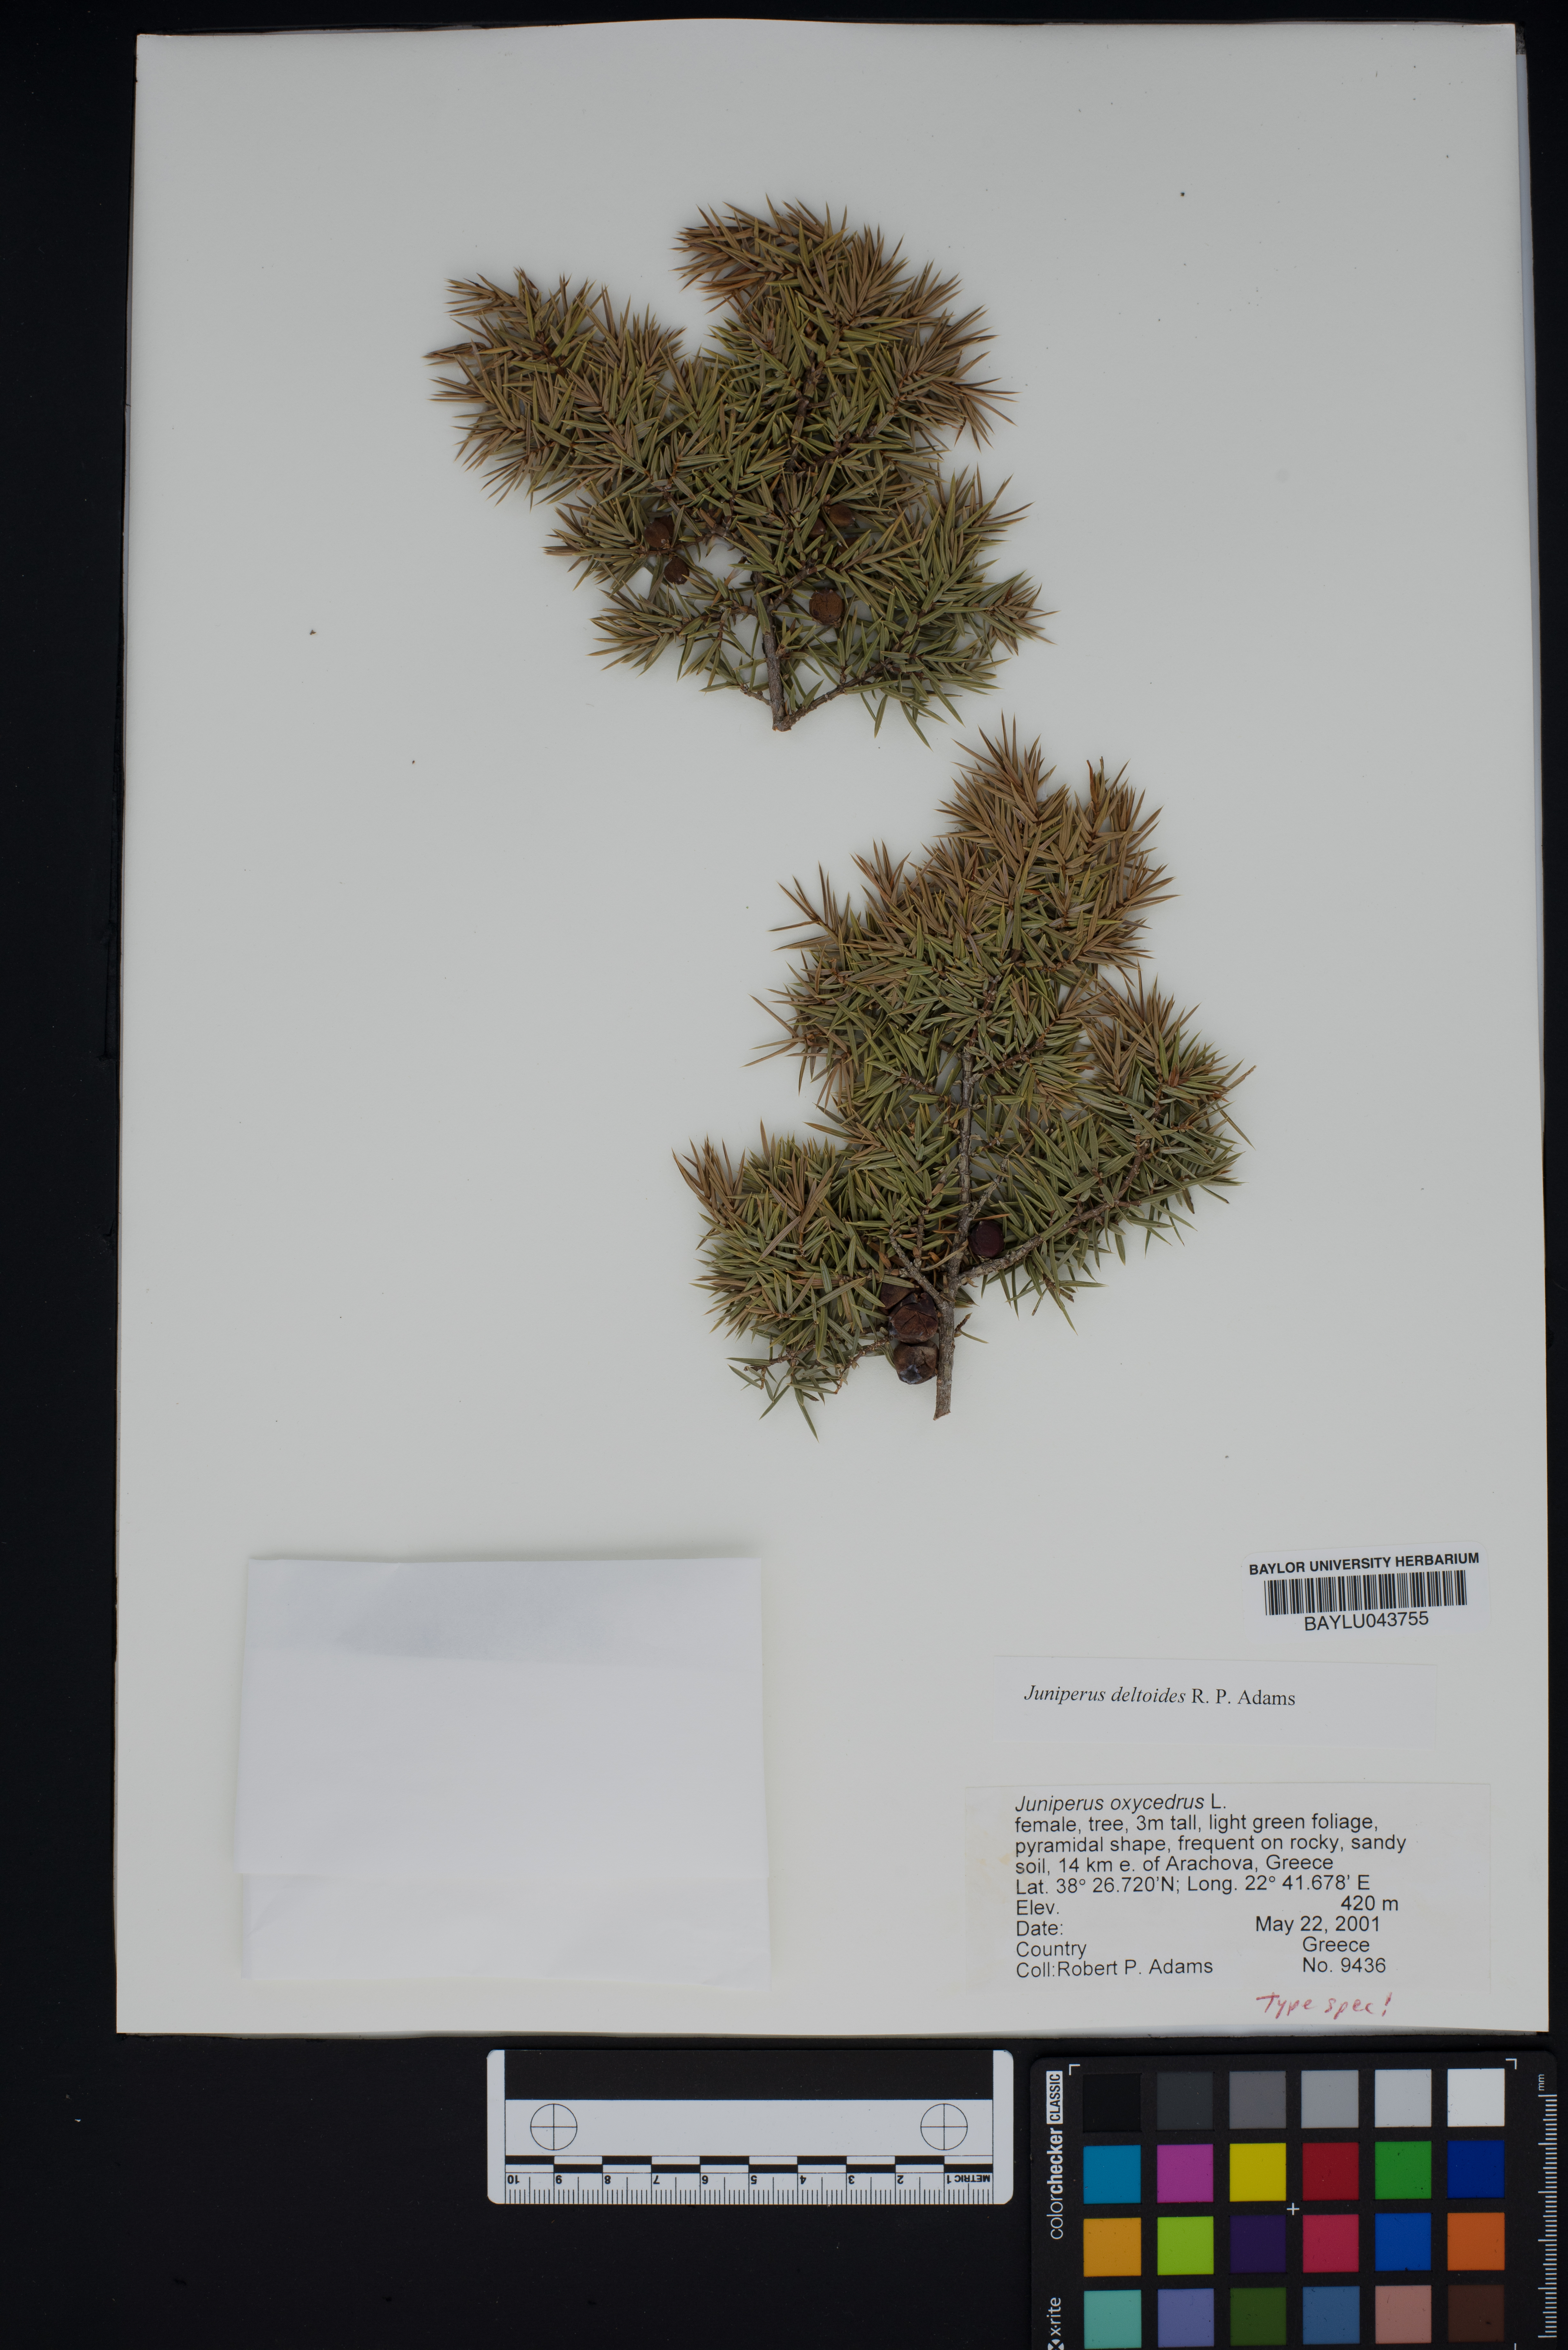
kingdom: Plantae
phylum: Tracheophyta
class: Pinopsida
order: Pinales
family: Cupressaceae
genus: Juniperus
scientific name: Juniperus oxycedrus
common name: Prickly juniper
